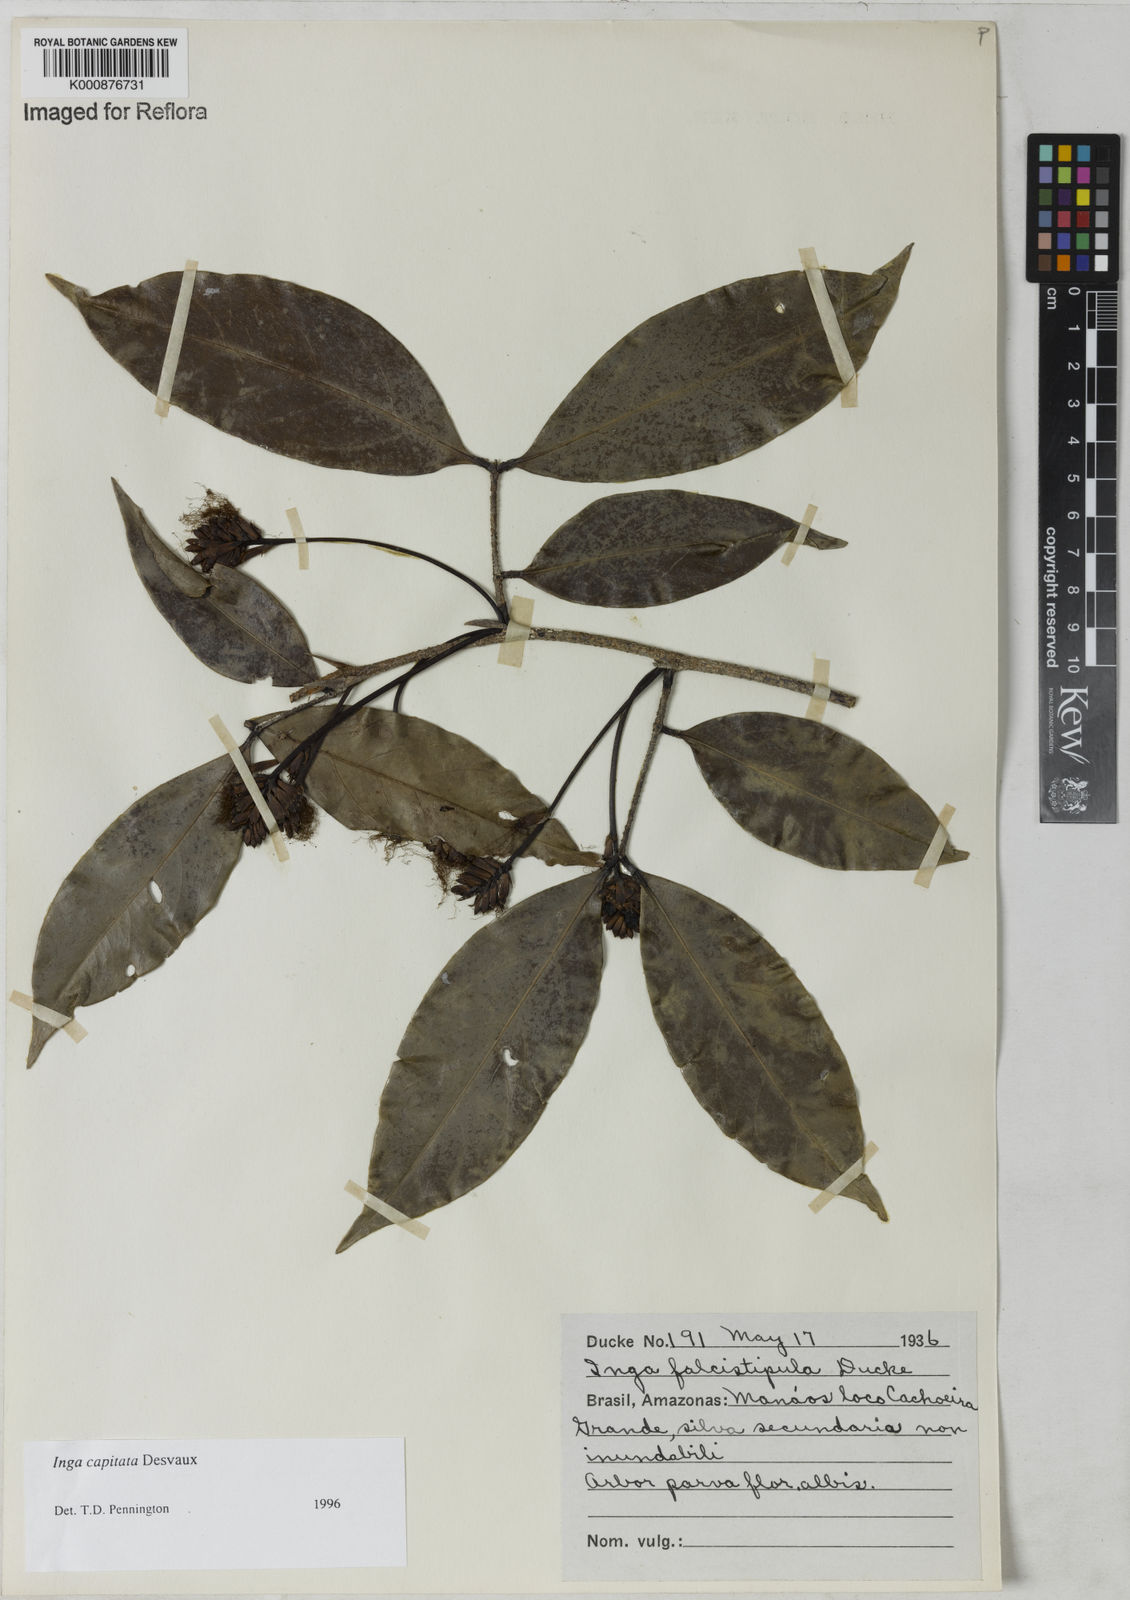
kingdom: Plantae
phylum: Tracheophyta
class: Magnoliopsida
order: Fabales
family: Fabaceae
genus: Inga
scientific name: Inga capitata
